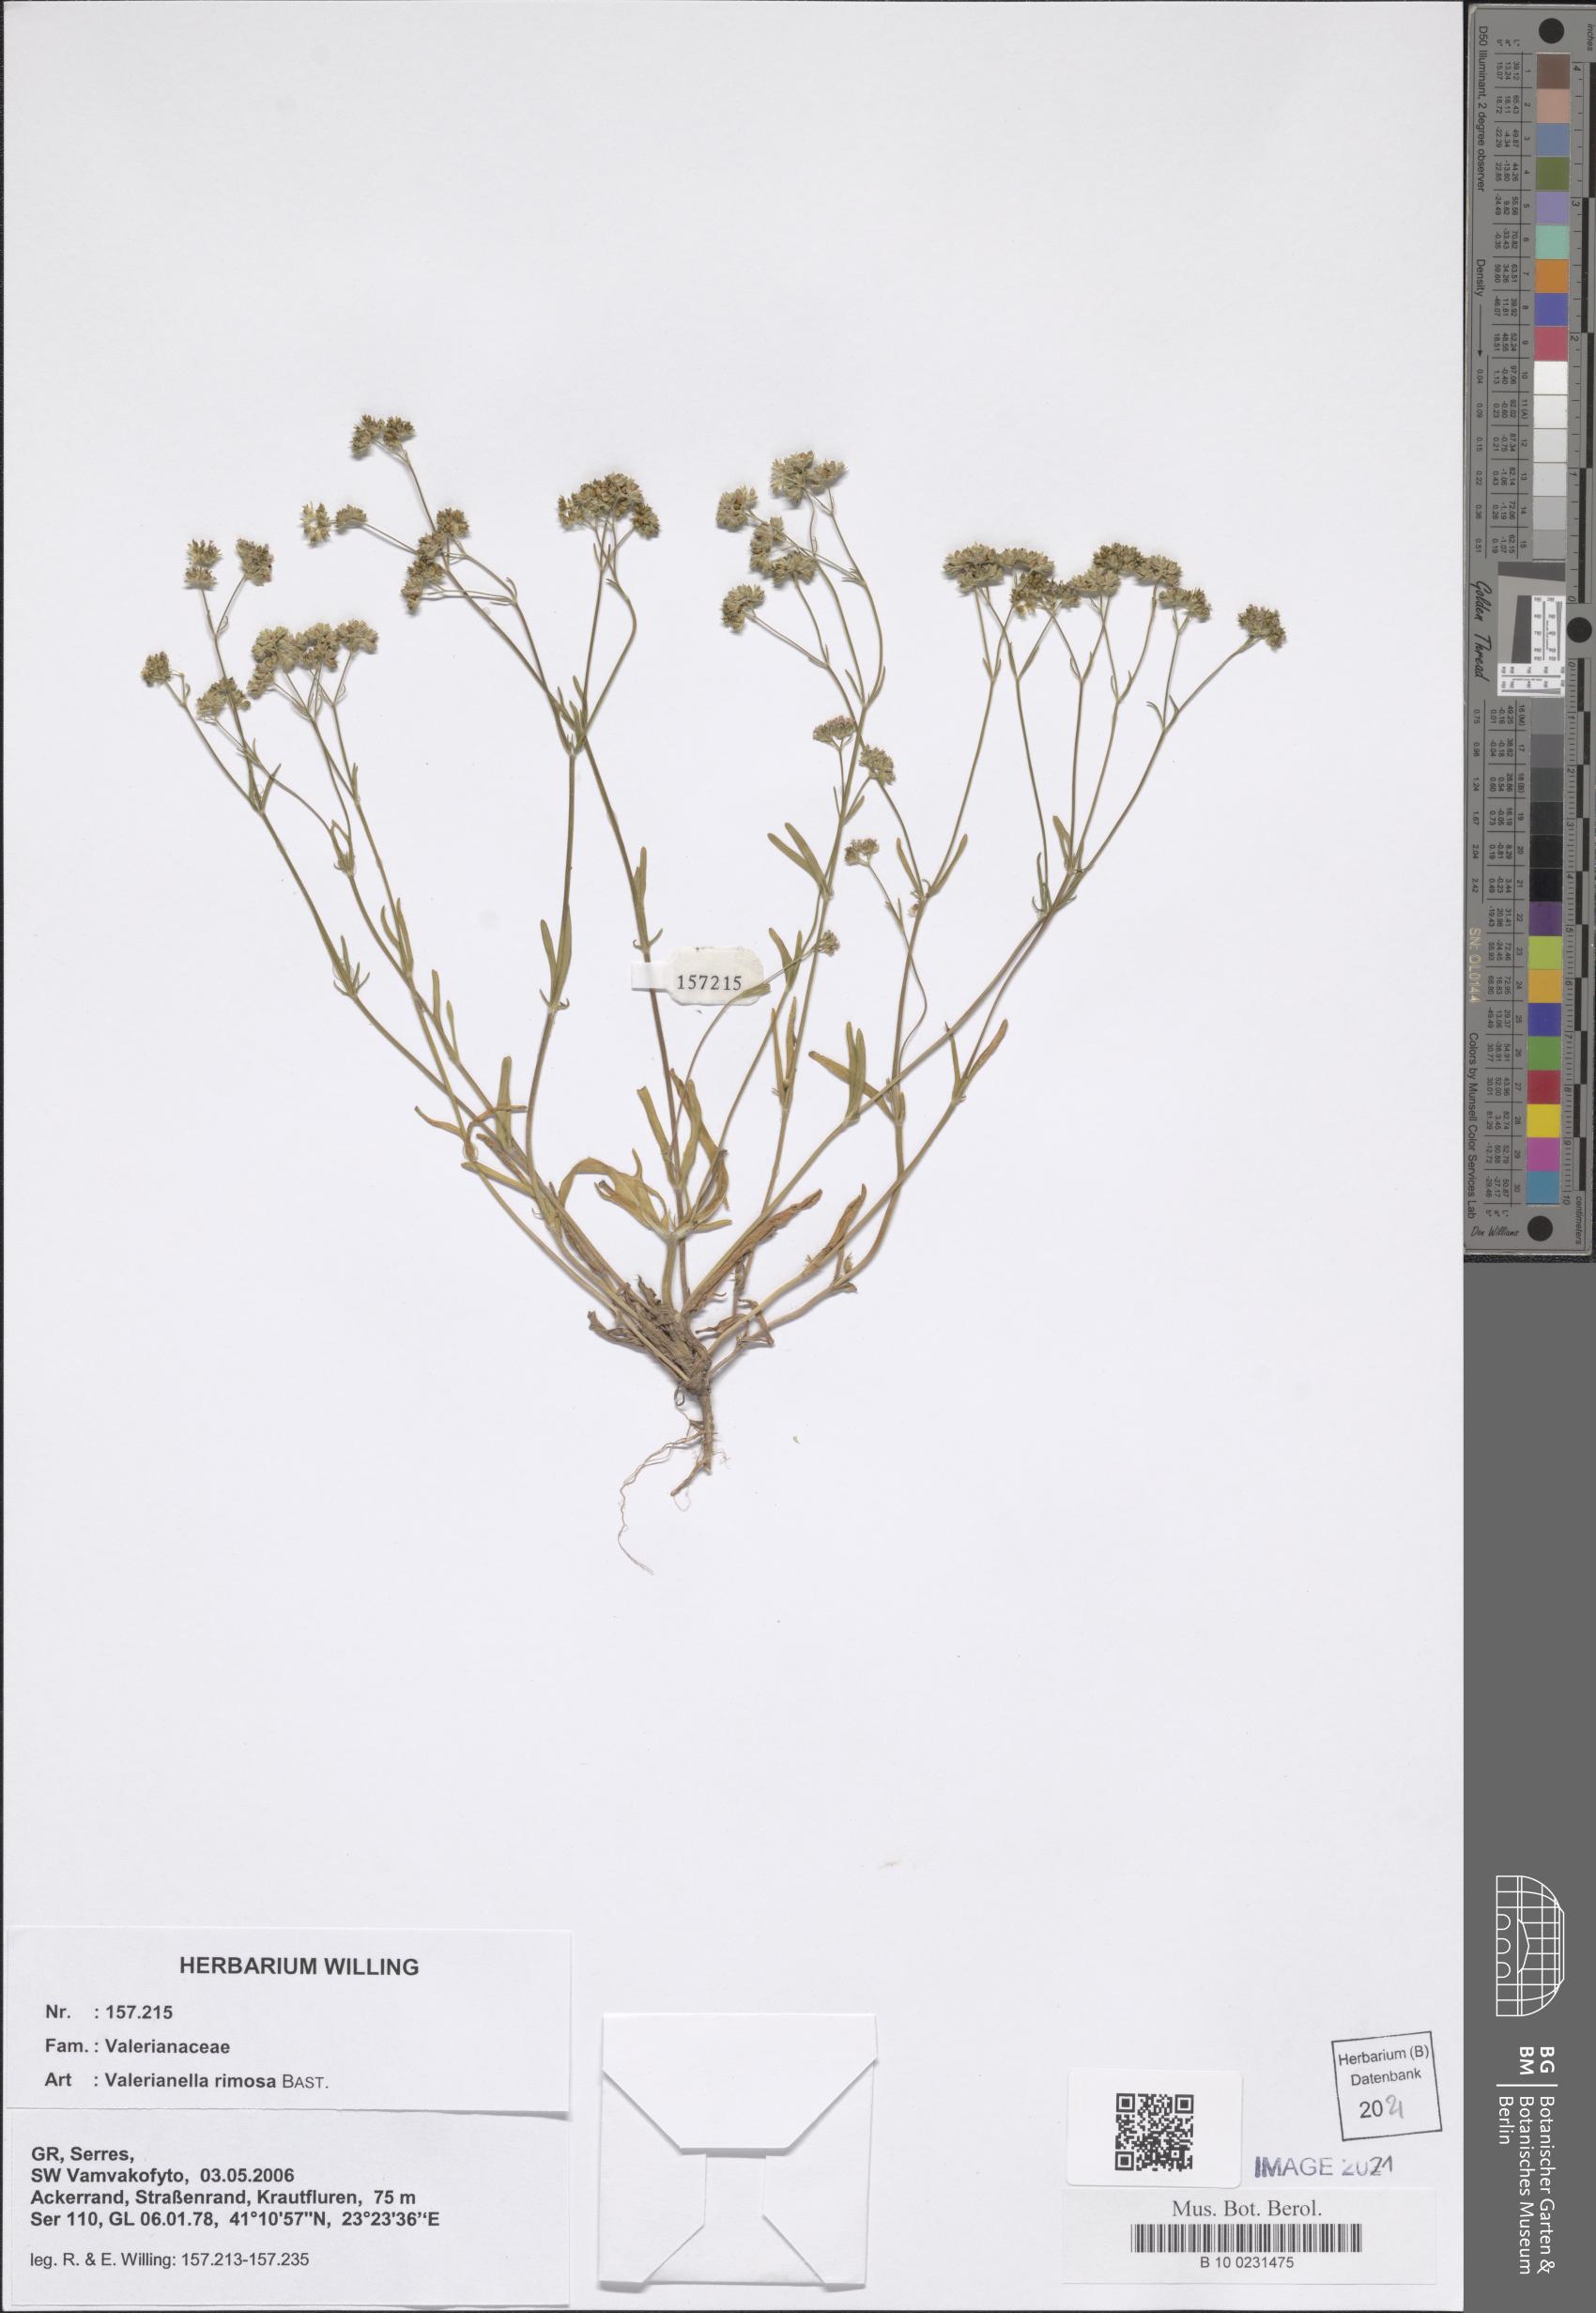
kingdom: Plantae
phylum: Tracheophyta
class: Magnoliopsida
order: Dipsacales
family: Caprifoliaceae
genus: Valerianella
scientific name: Valerianella rimosa
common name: Broad-fruited cornsalad
